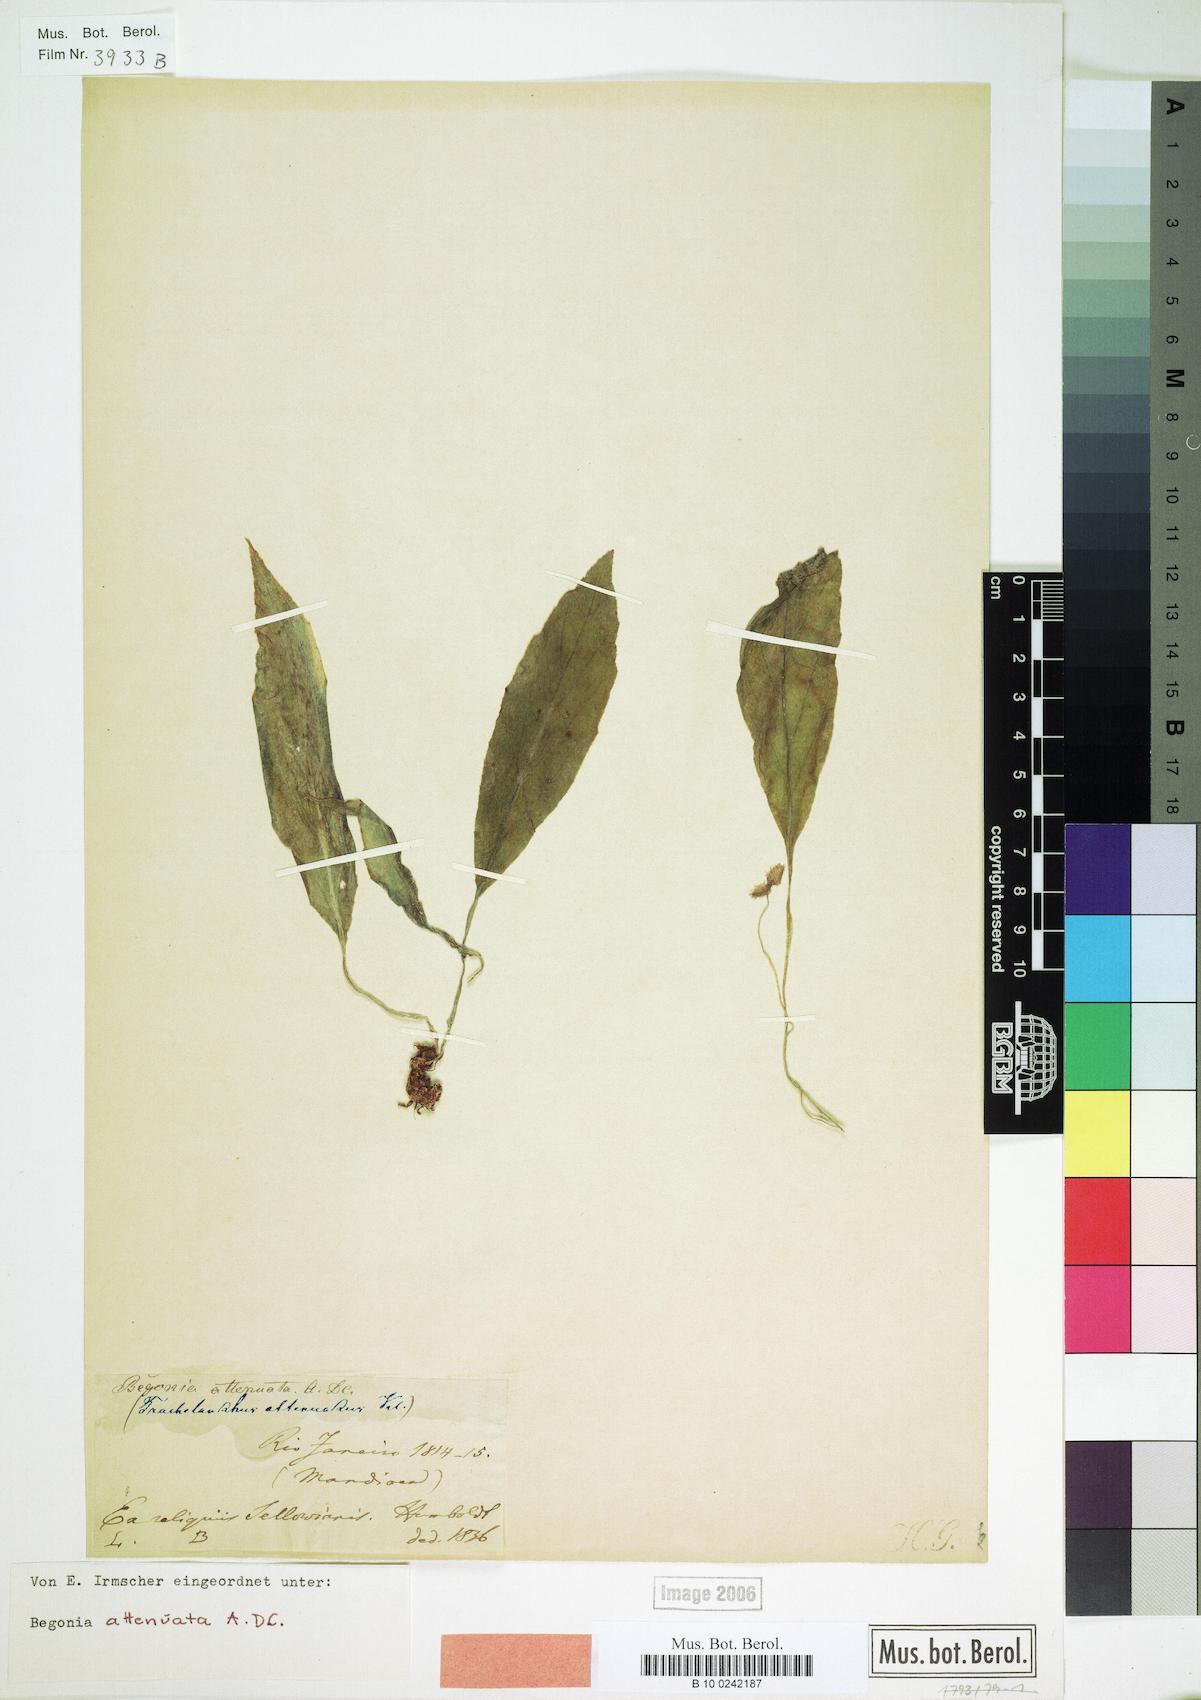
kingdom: Plantae
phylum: Tracheophyta
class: Magnoliopsida
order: Cucurbitales
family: Begoniaceae
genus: Begonia
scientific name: Begonia lanceolata
